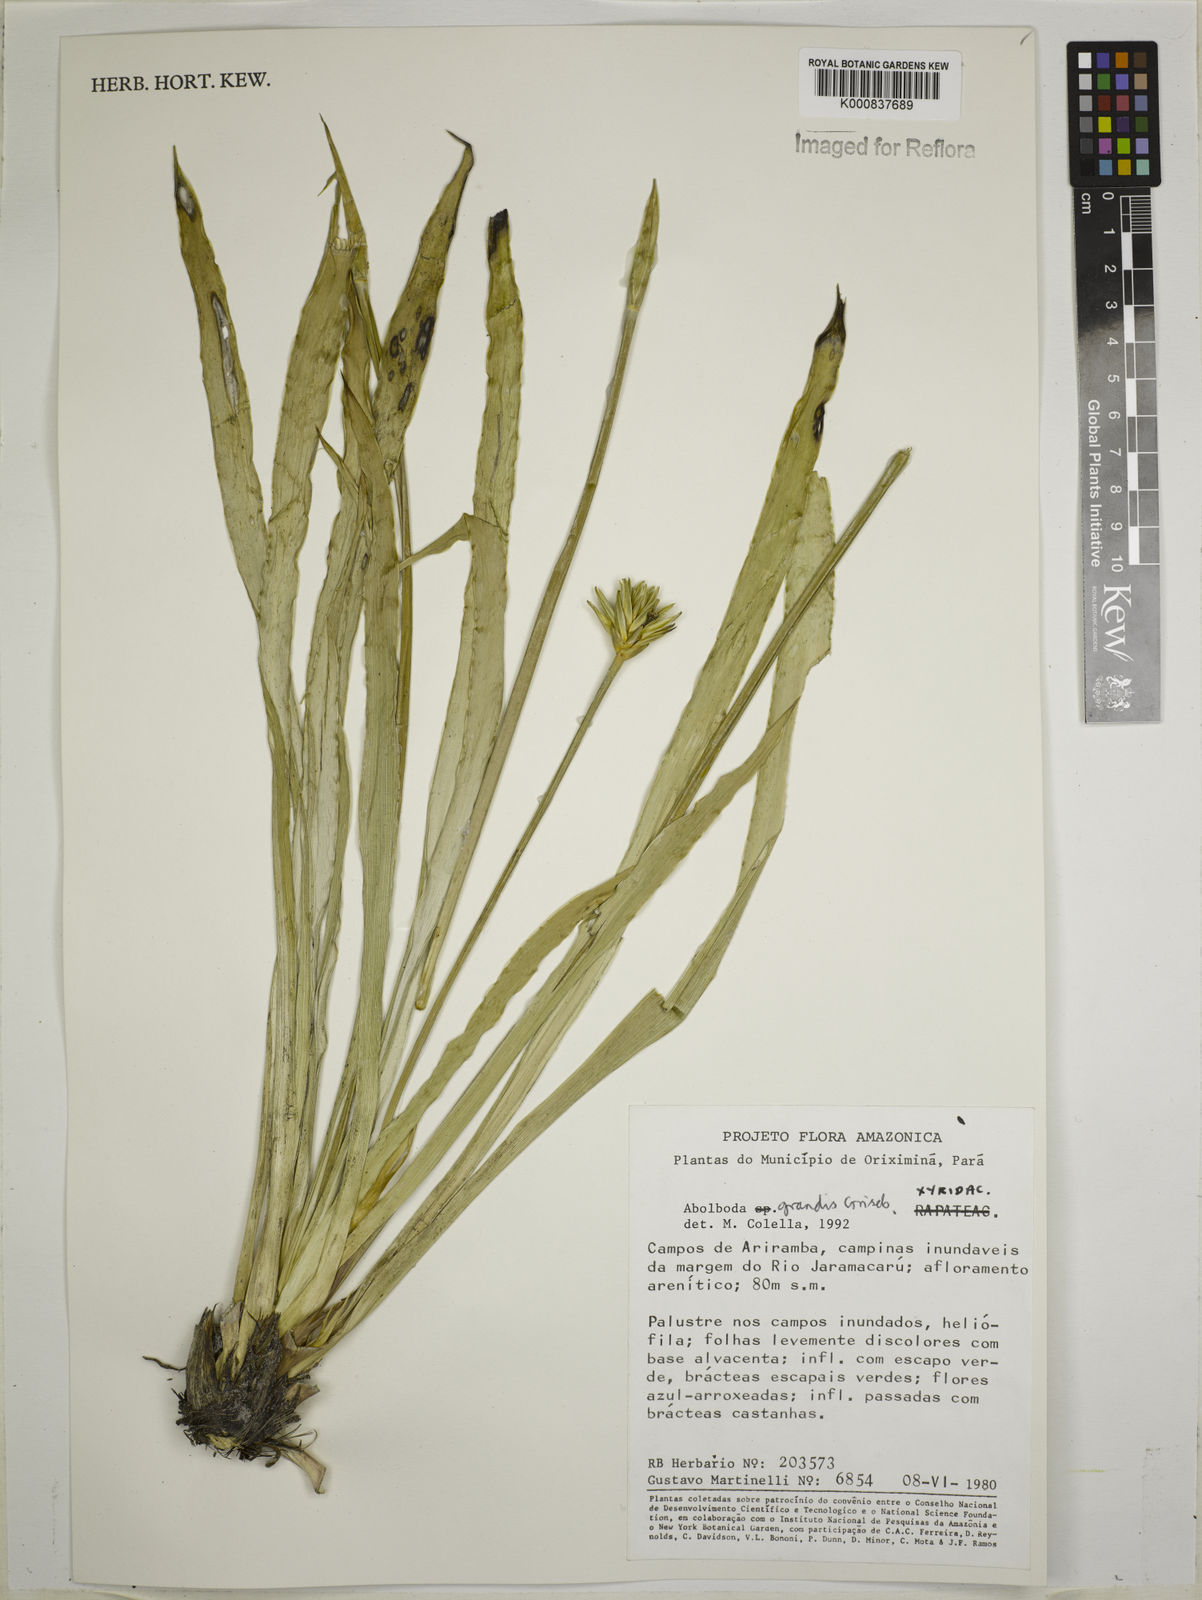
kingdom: Plantae
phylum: Tracheophyta
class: Liliopsida
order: Poales
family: Xyridaceae
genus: Abolboda
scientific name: Abolboda grandis
